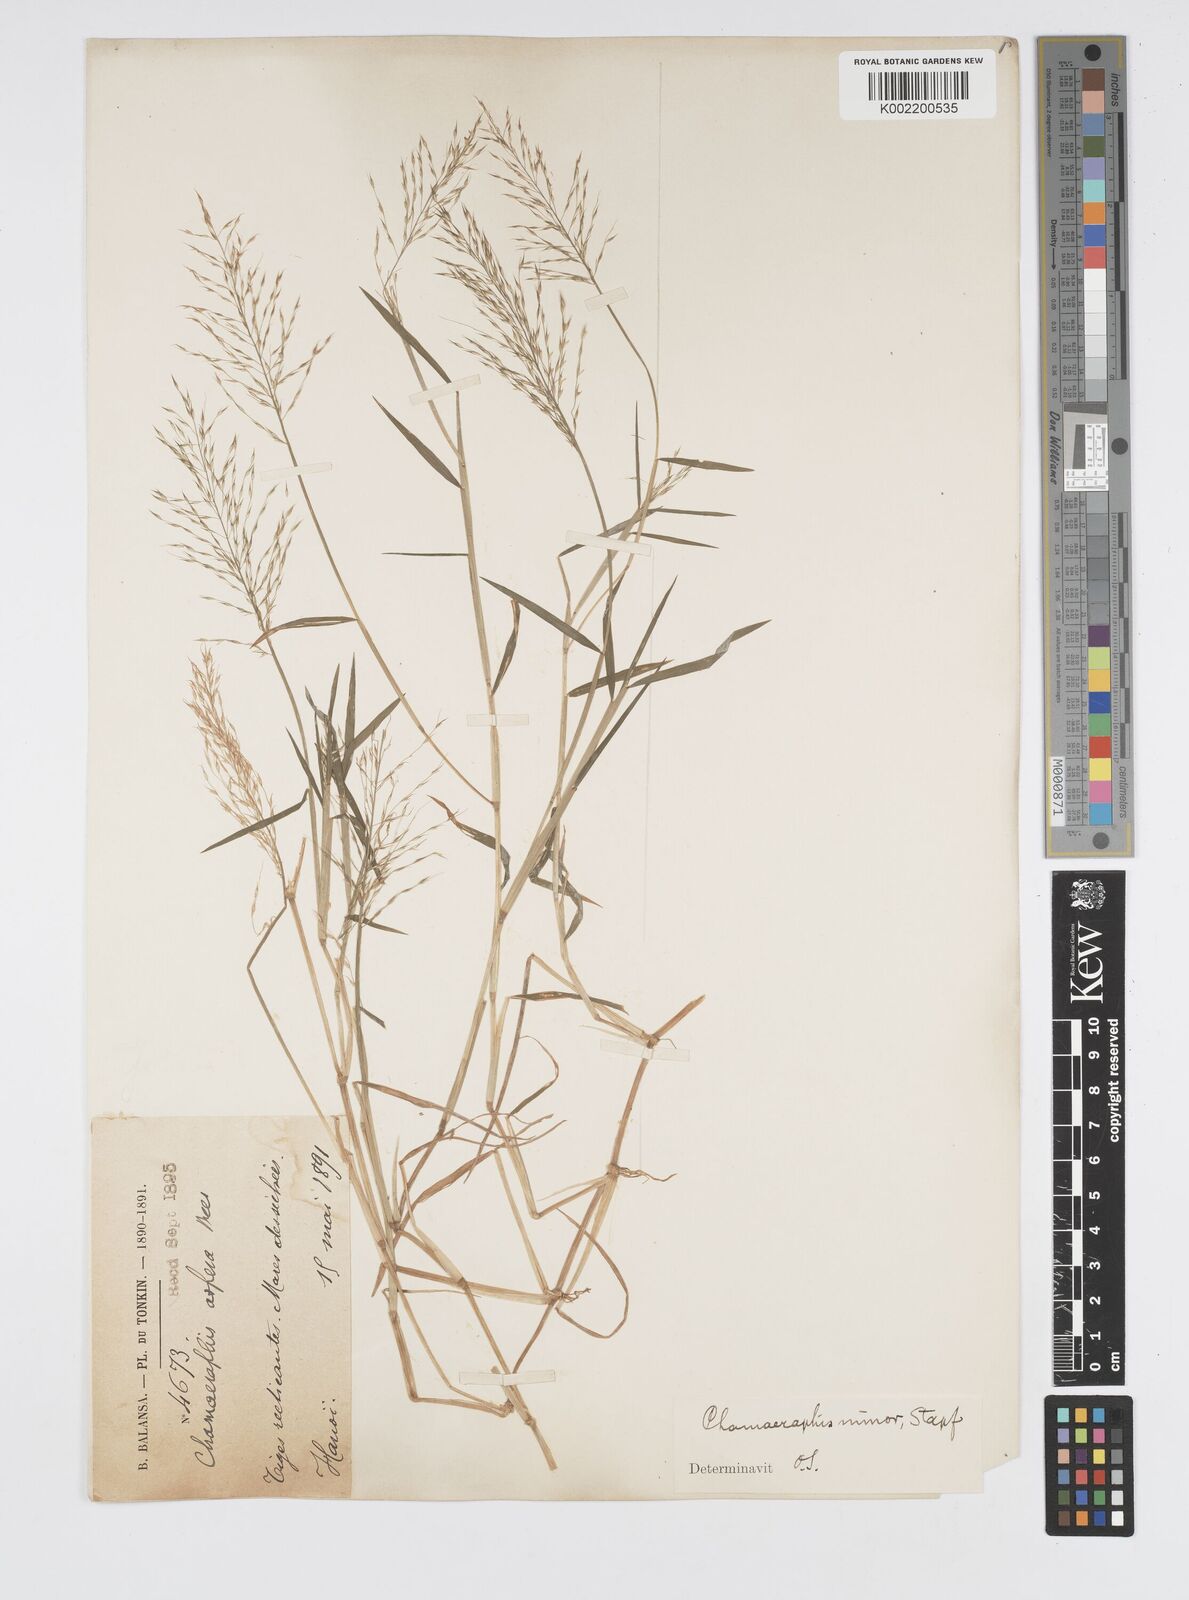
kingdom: Plantae
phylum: Tracheophyta
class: Liliopsida
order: Poales
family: Poaceae
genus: Pseudoraphis
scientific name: Pseudoraphis minuta
